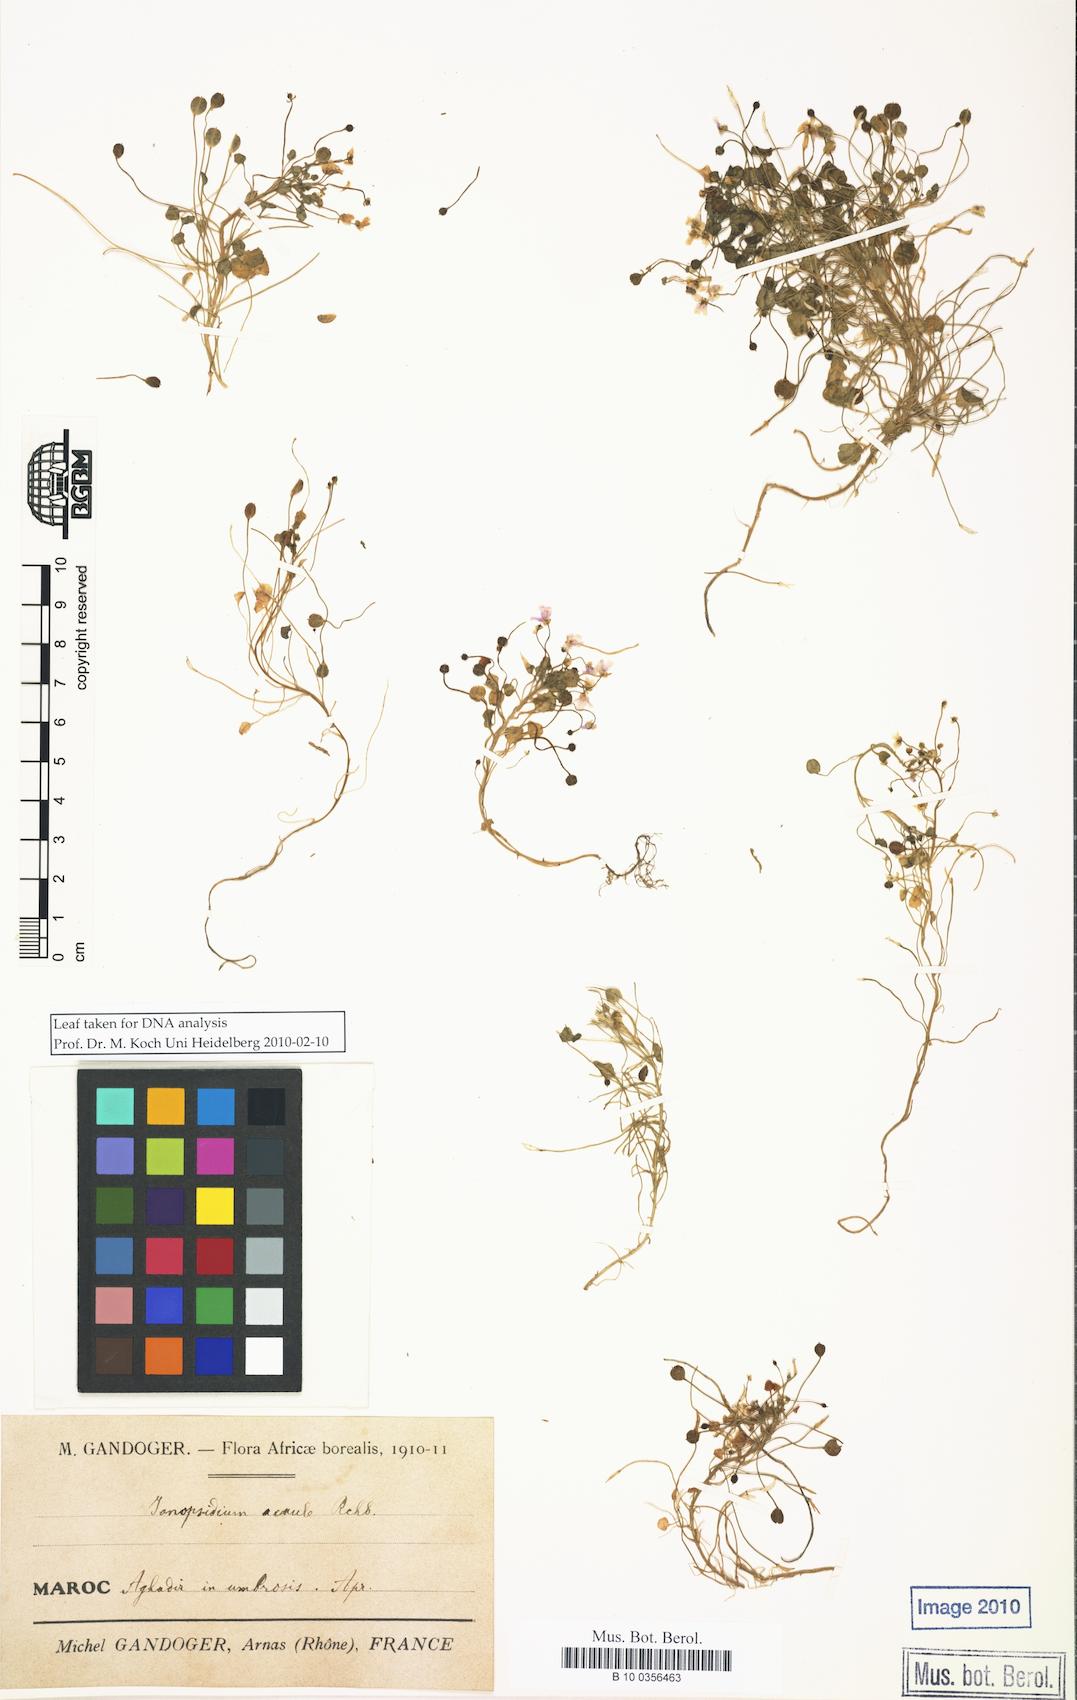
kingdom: Plantae
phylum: Tracheophyta
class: Magnoliopsida
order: Brassicales
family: Brassicaceae
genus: Ionopsidium
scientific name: Ionopsidium acaule
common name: False diamondflower
